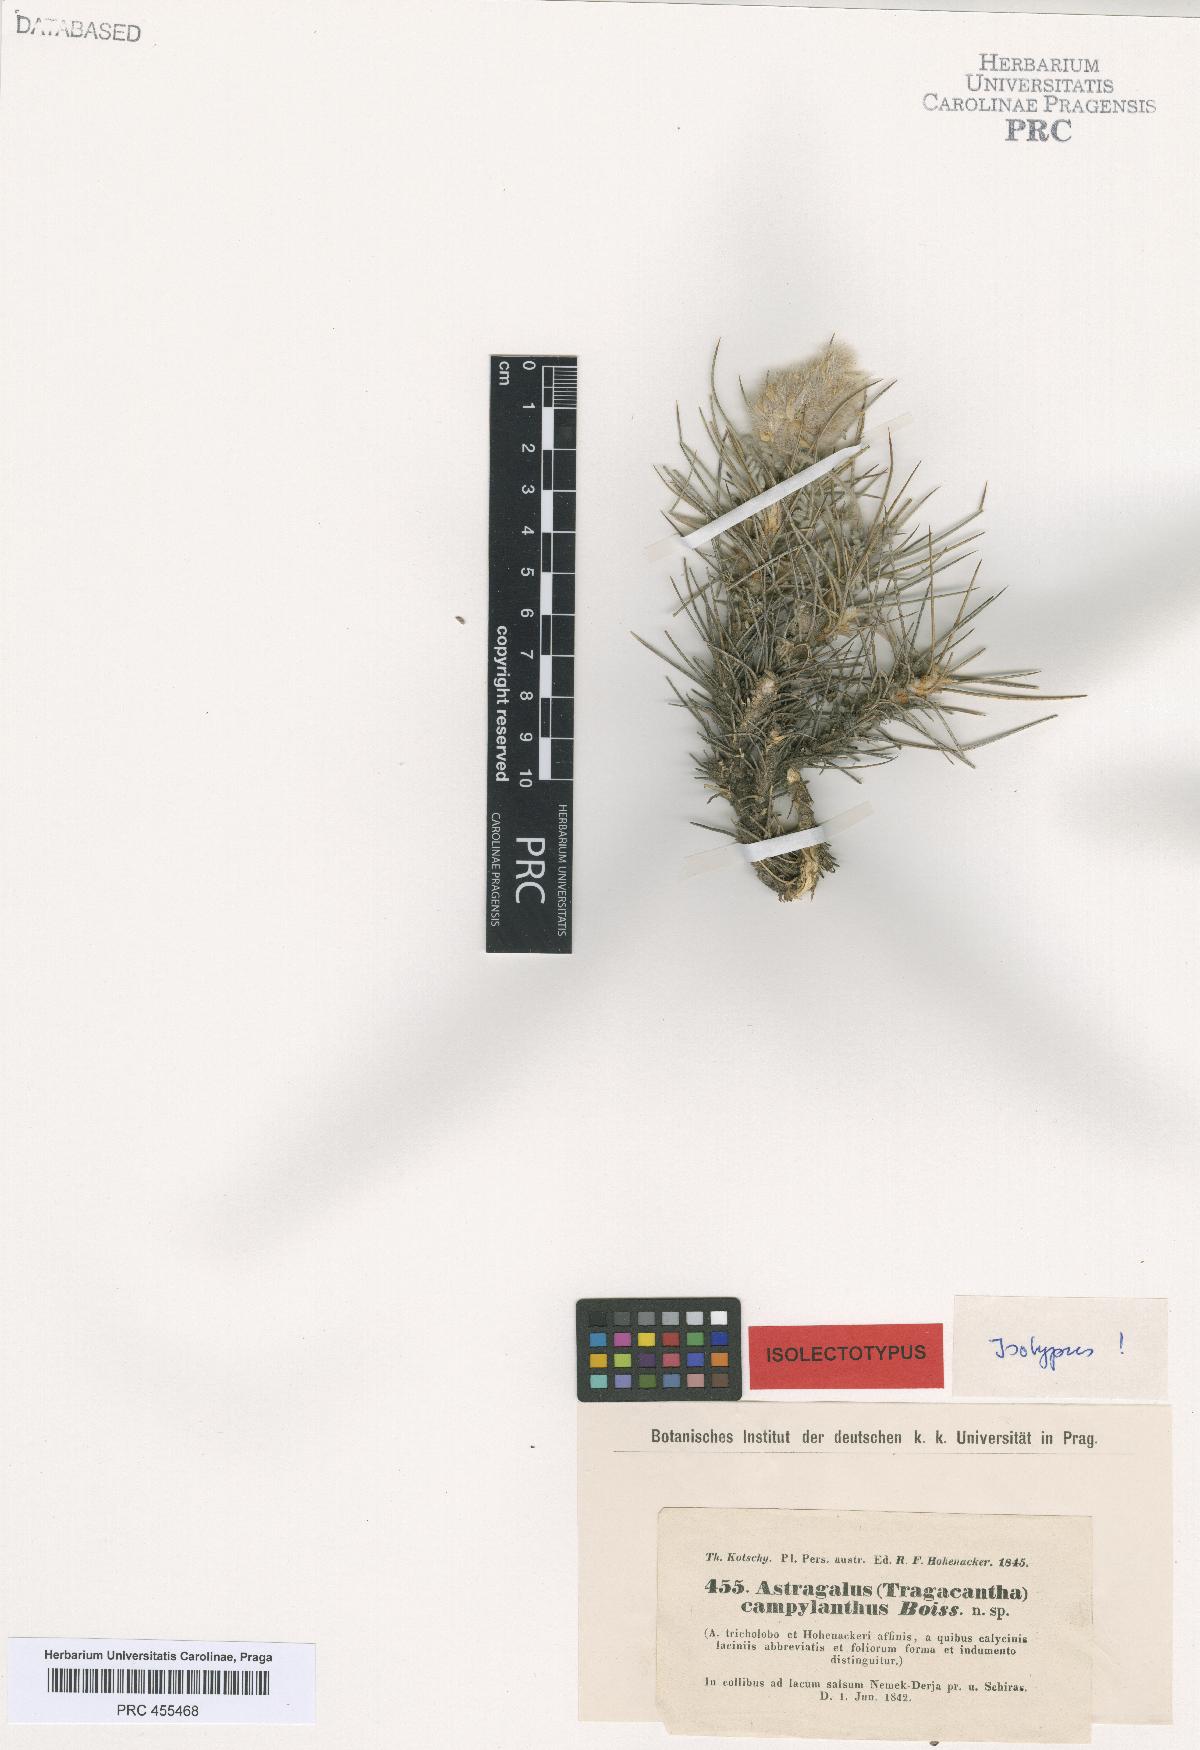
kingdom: Plantae
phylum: Tracheophyta
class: Magnoliopsida
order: Fabales
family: Fabaceae
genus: Astragalus
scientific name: Astragalus campylanthus
